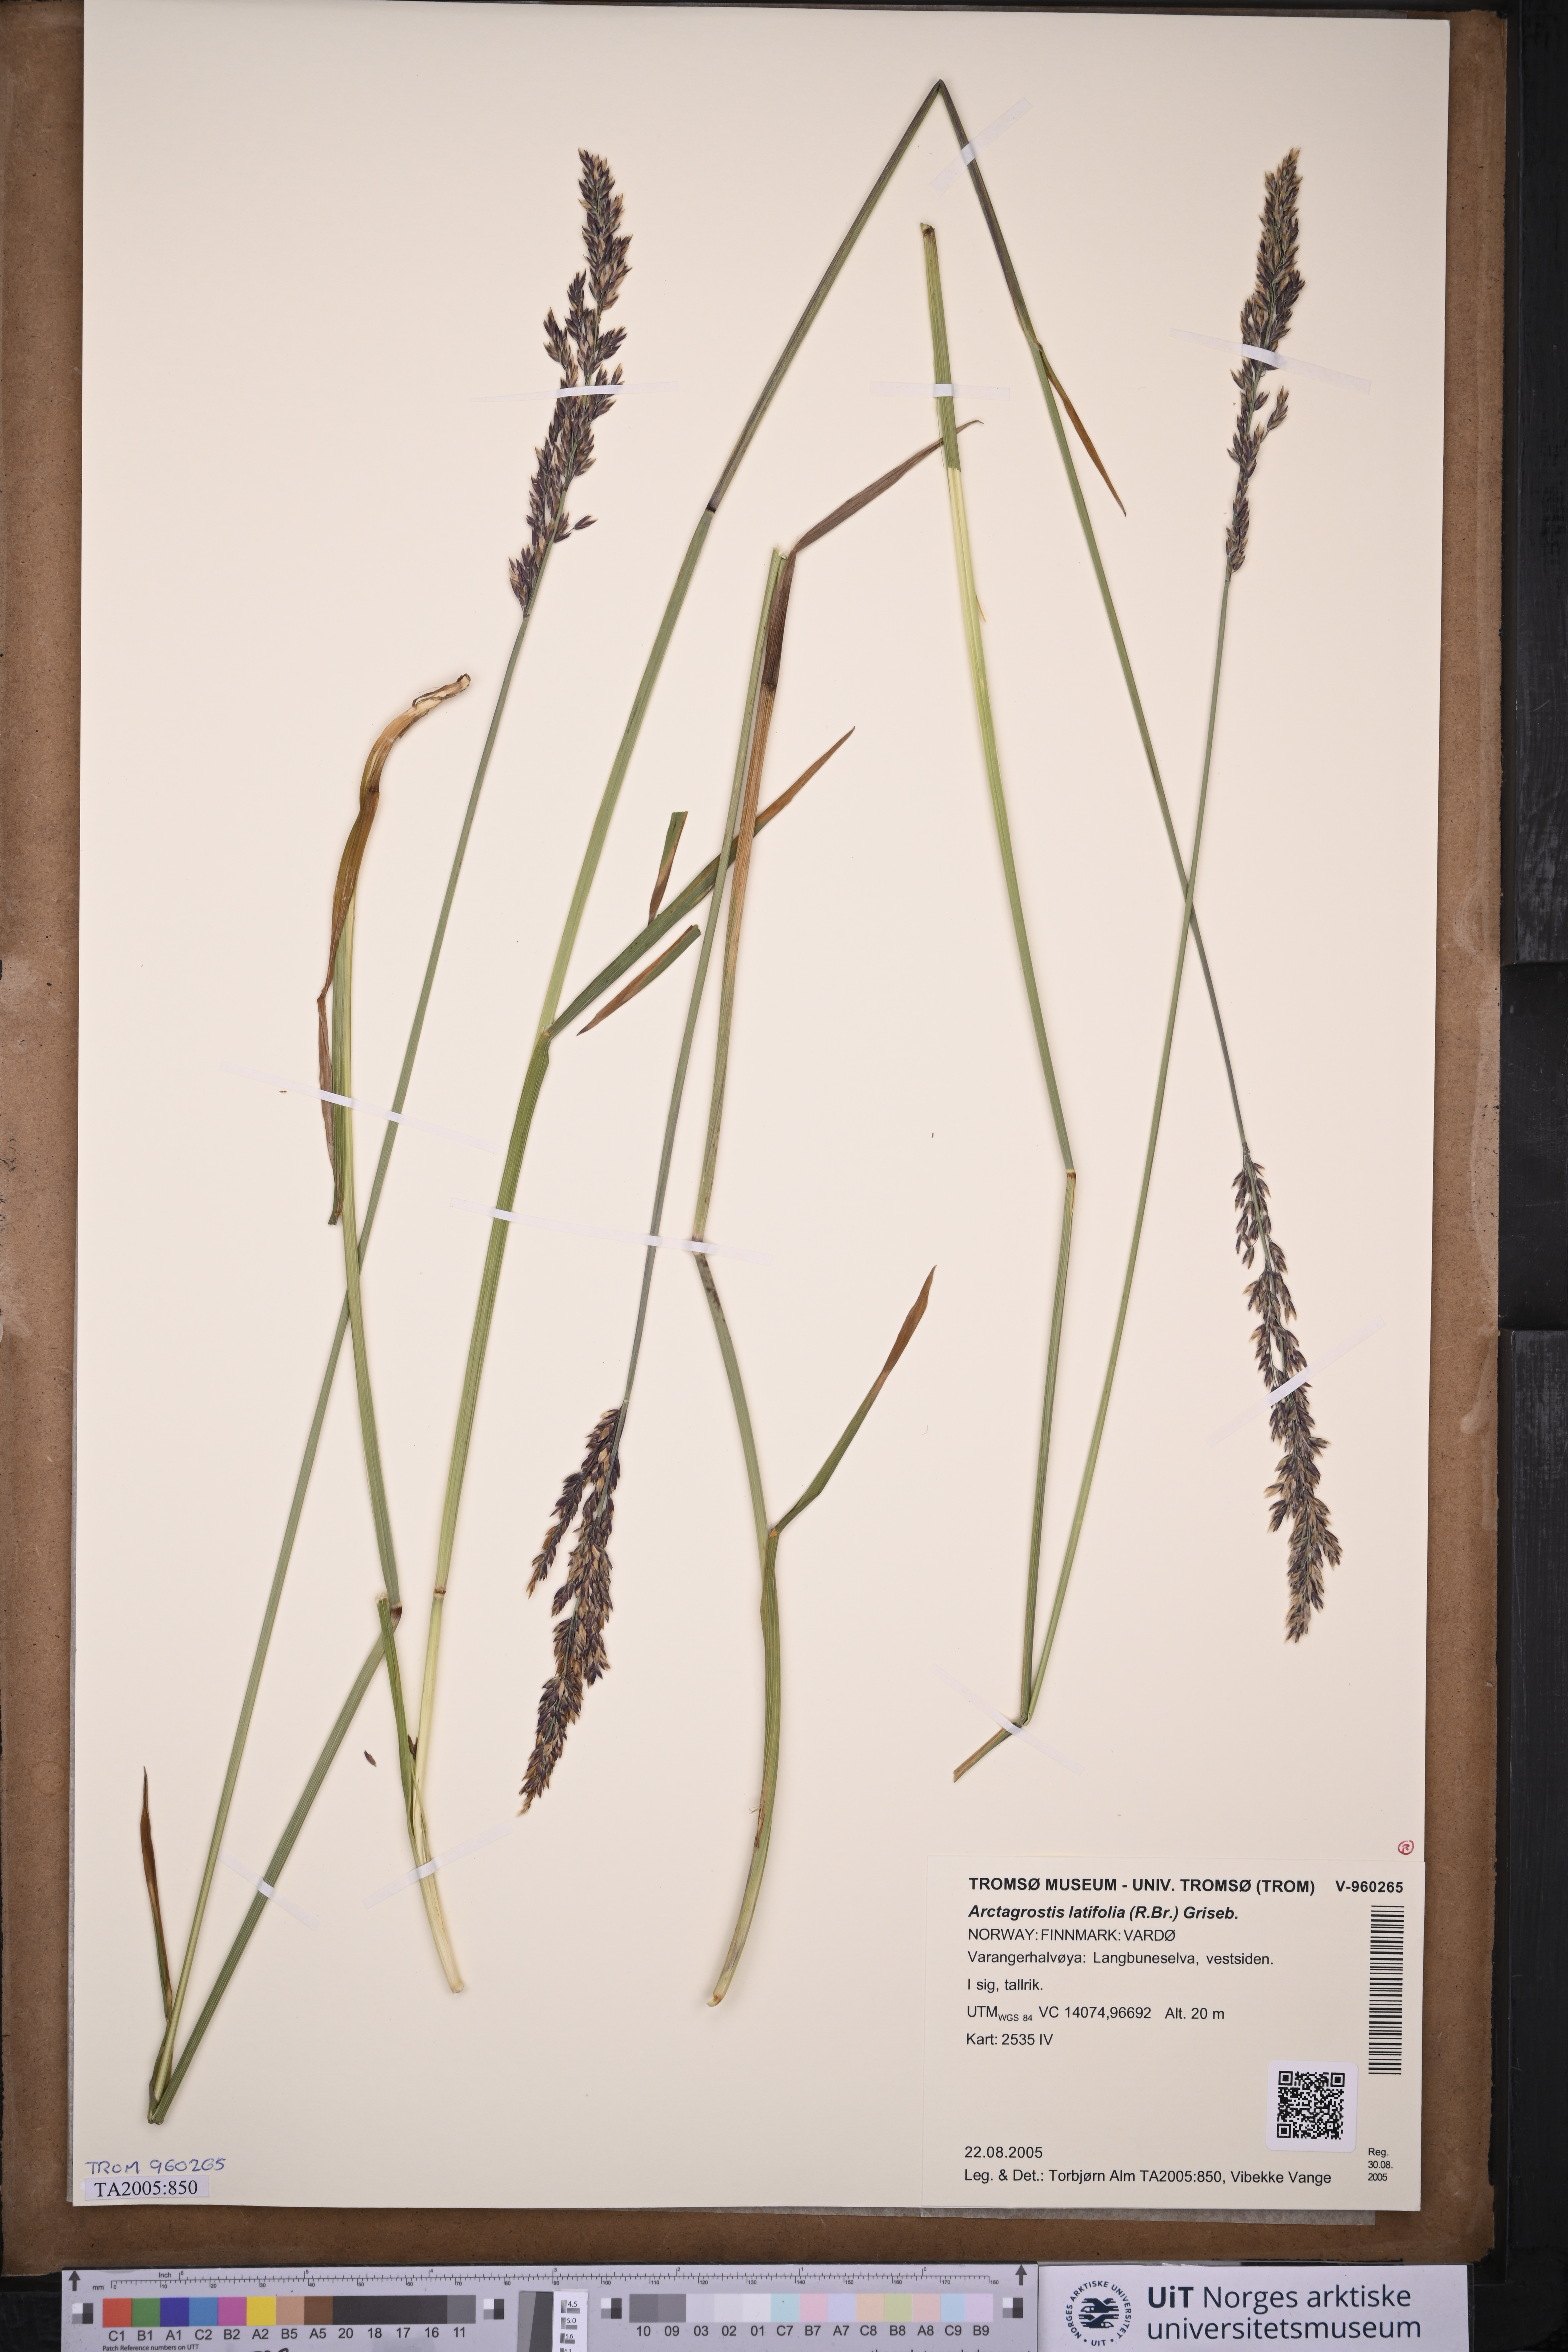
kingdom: Plantae
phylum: Tracheophyta
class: Liliopsida
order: Poales
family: Poaceae
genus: Arctagrostis
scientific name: Arctagrostis latifolia
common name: Arctic grass
